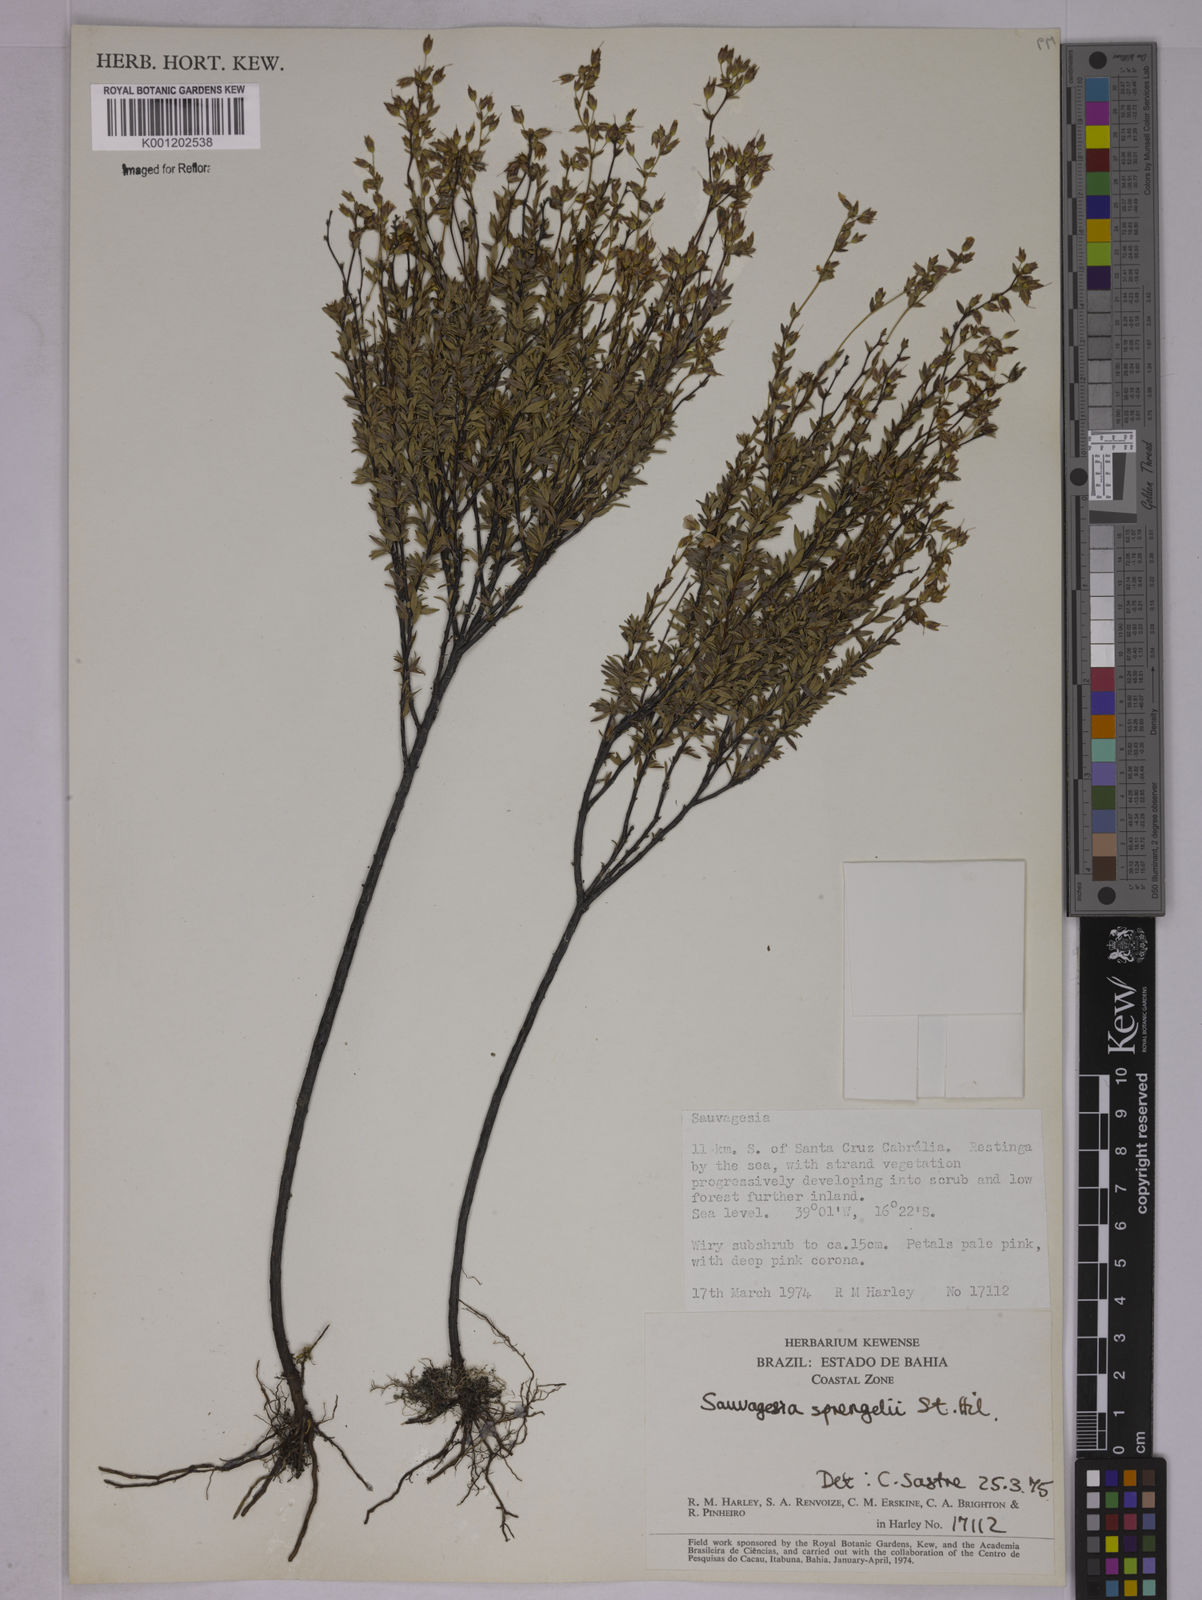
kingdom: Plantae
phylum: Tracheophyta
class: Magnoliopsida
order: Malpighiales
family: Ochnaceae
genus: Sauvagesia
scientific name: Sauvagesia sprengelii
